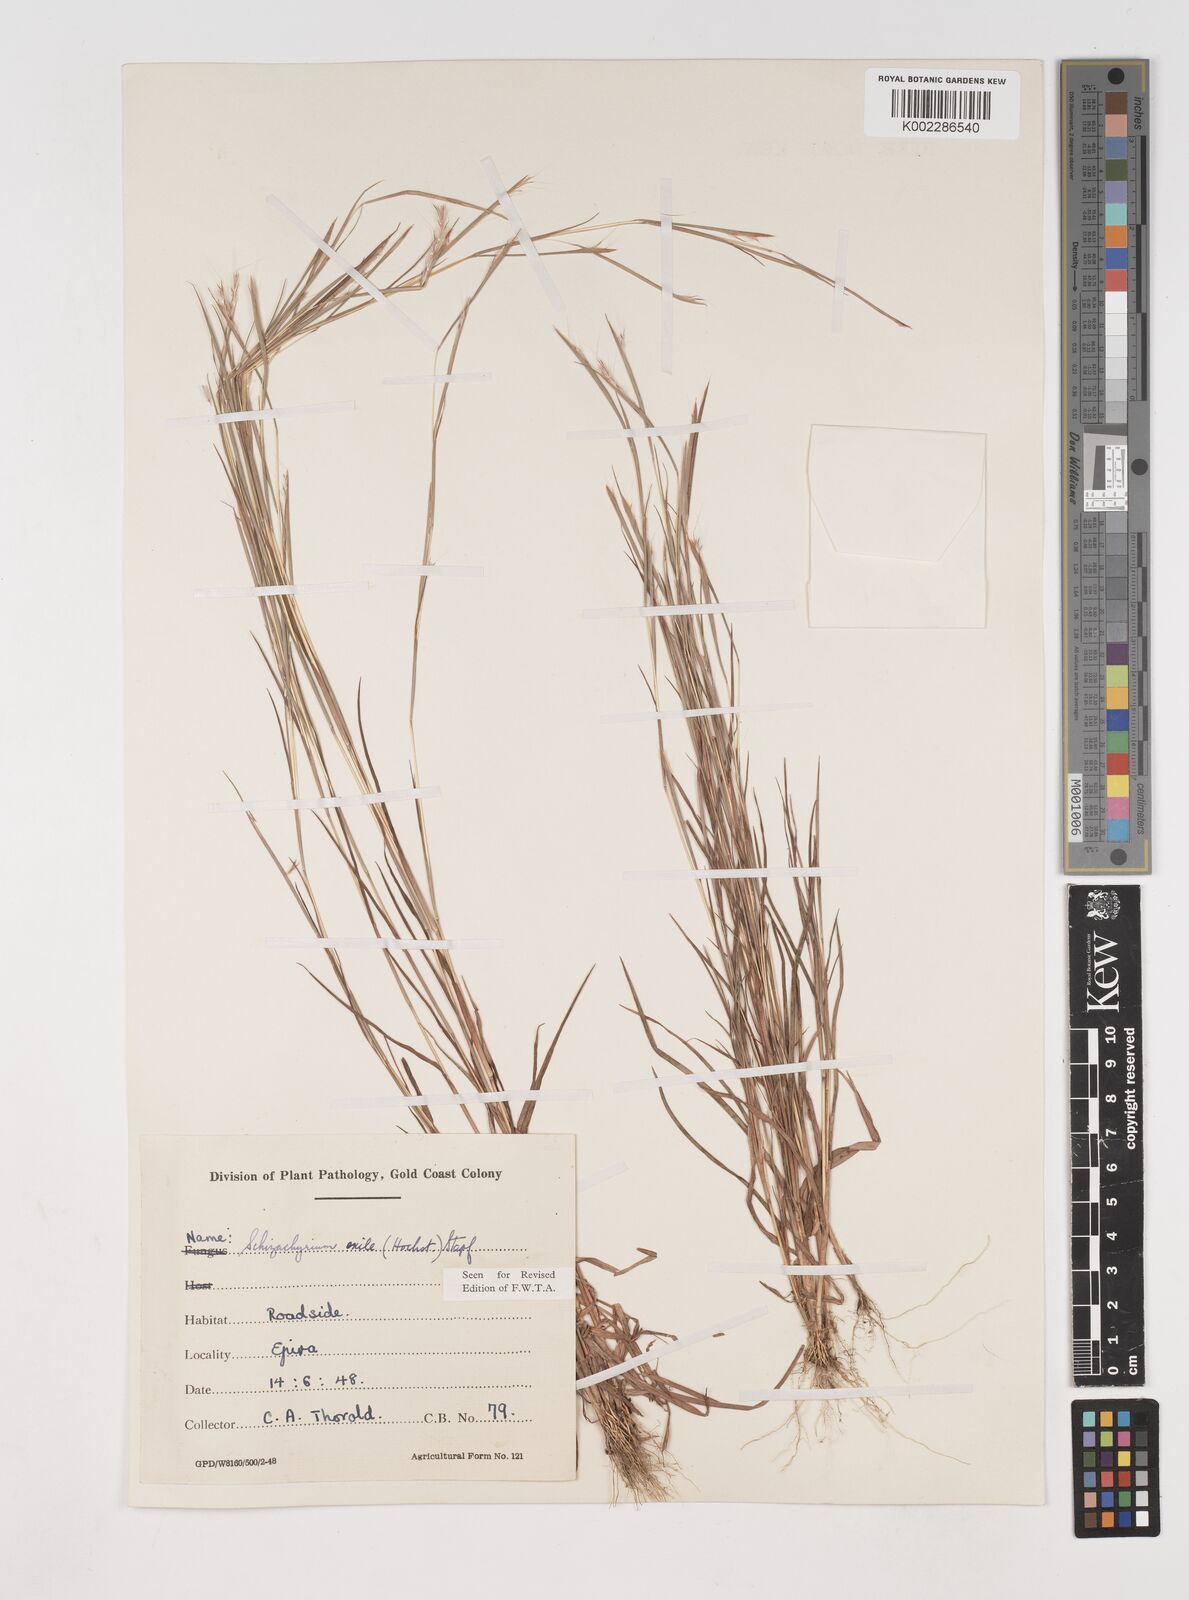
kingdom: Plantae
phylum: Tracheophyta
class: Liliopsida
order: Poales
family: Poaceae
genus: Schizachyrium
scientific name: Schizachyrium exile
